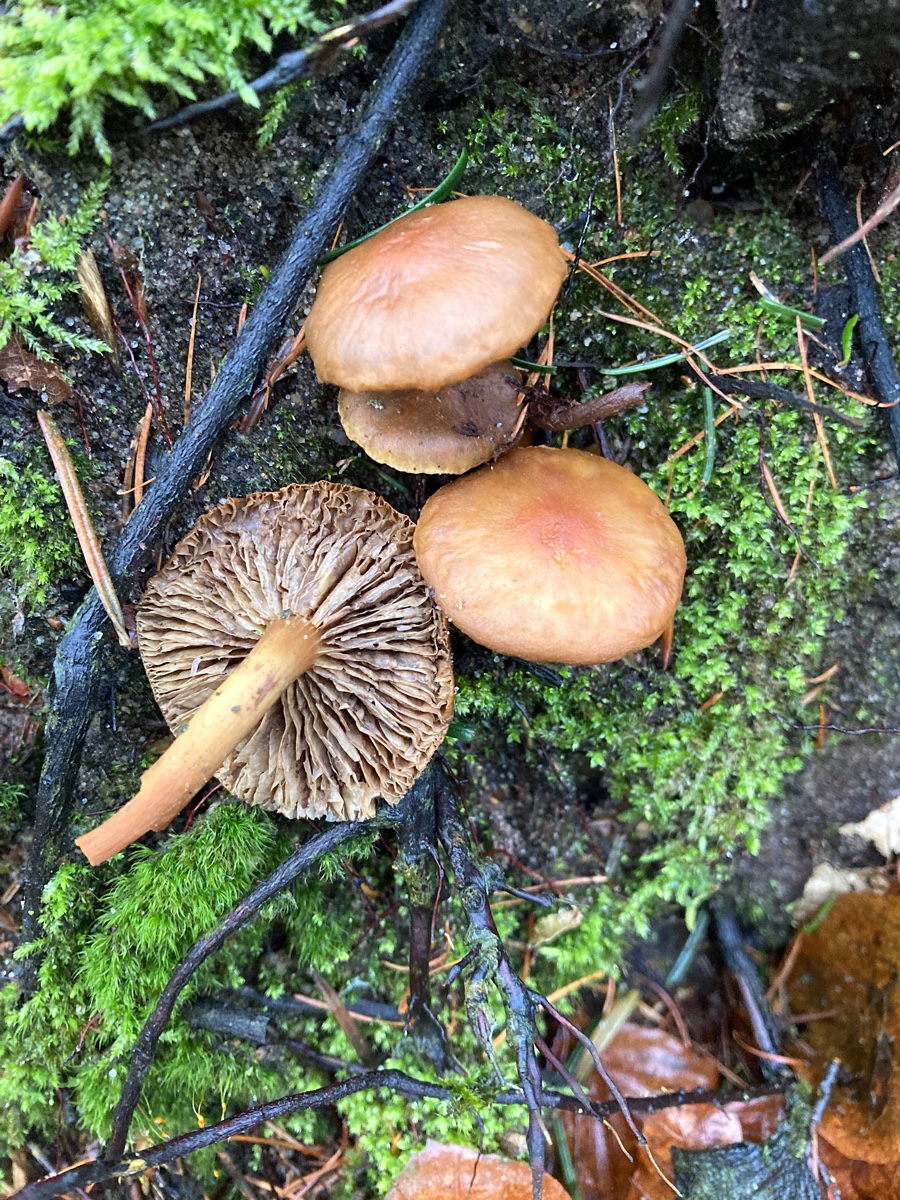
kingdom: Fungi
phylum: Basidiomycota
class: Agaricomycetes
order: Agaricales
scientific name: Agaricales
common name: champignonordenen
